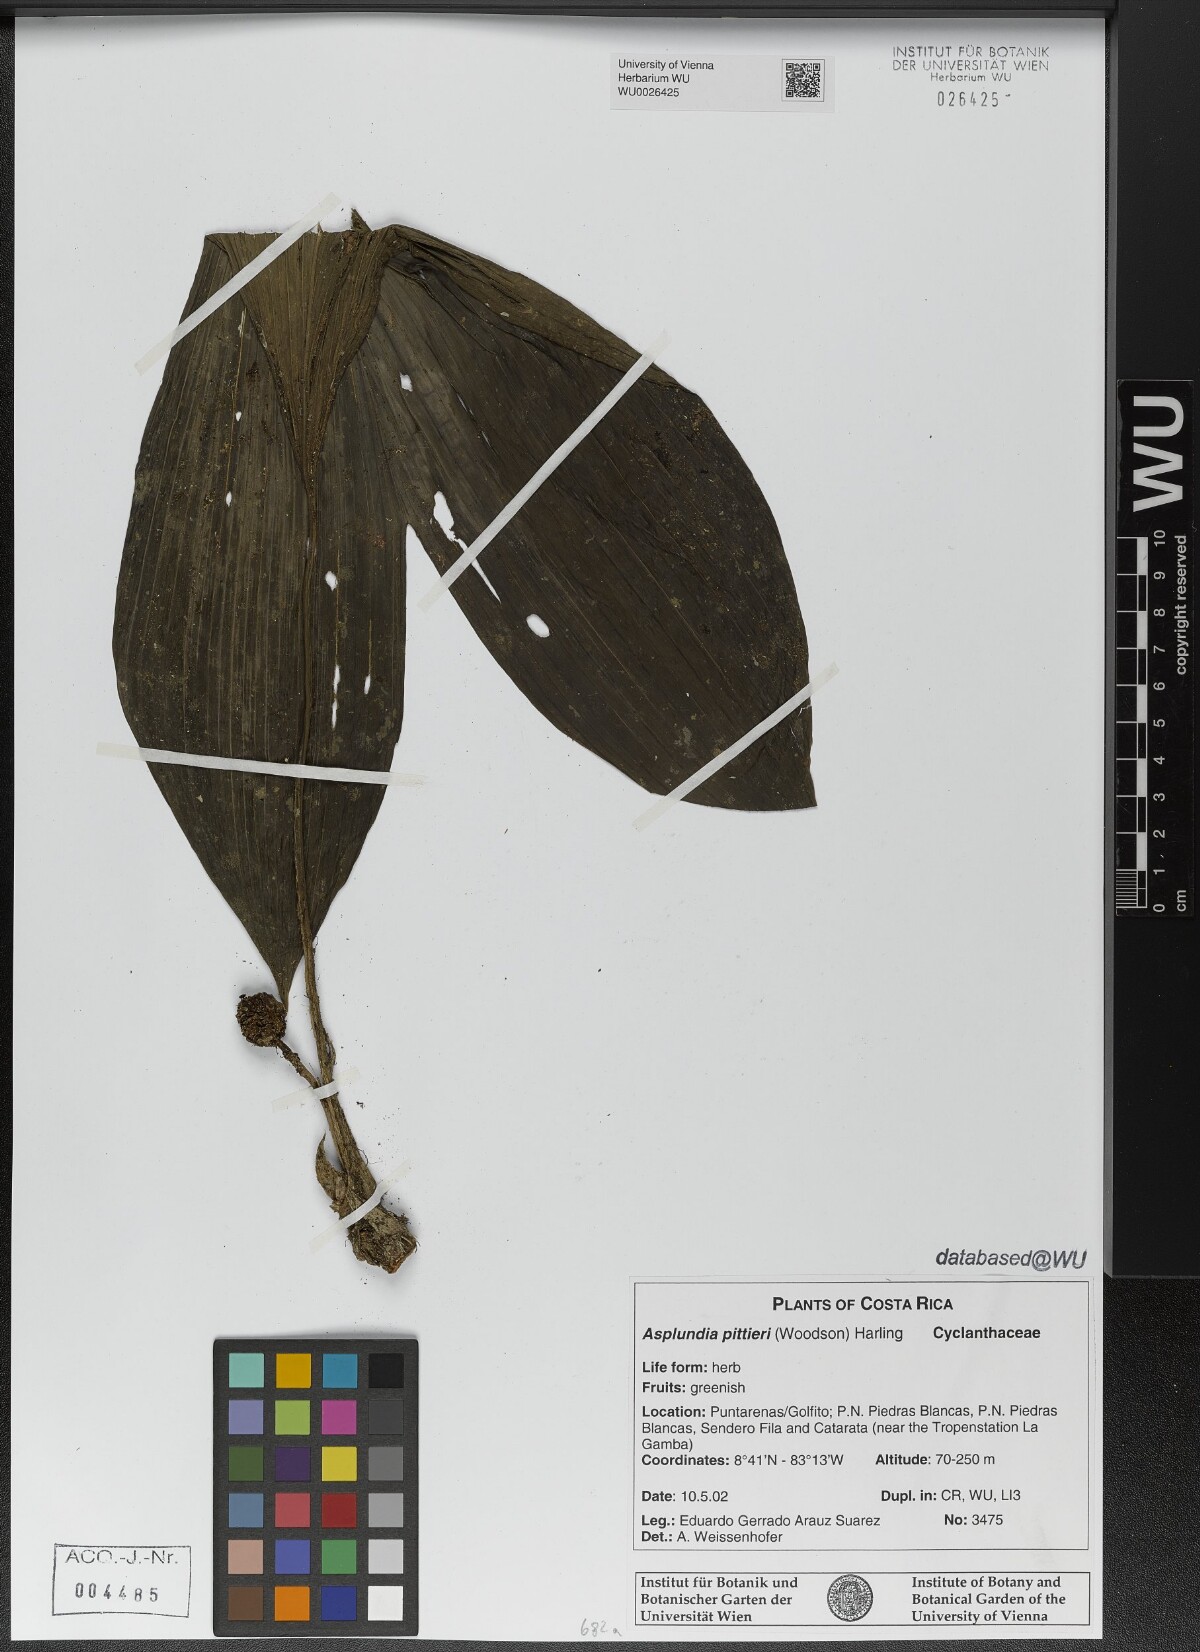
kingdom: Plantae
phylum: Tracheophyta
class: Liliopsida
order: Pandanales
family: Cyclanthaceae
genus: Asplundia
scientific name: Asplundia pittieri
